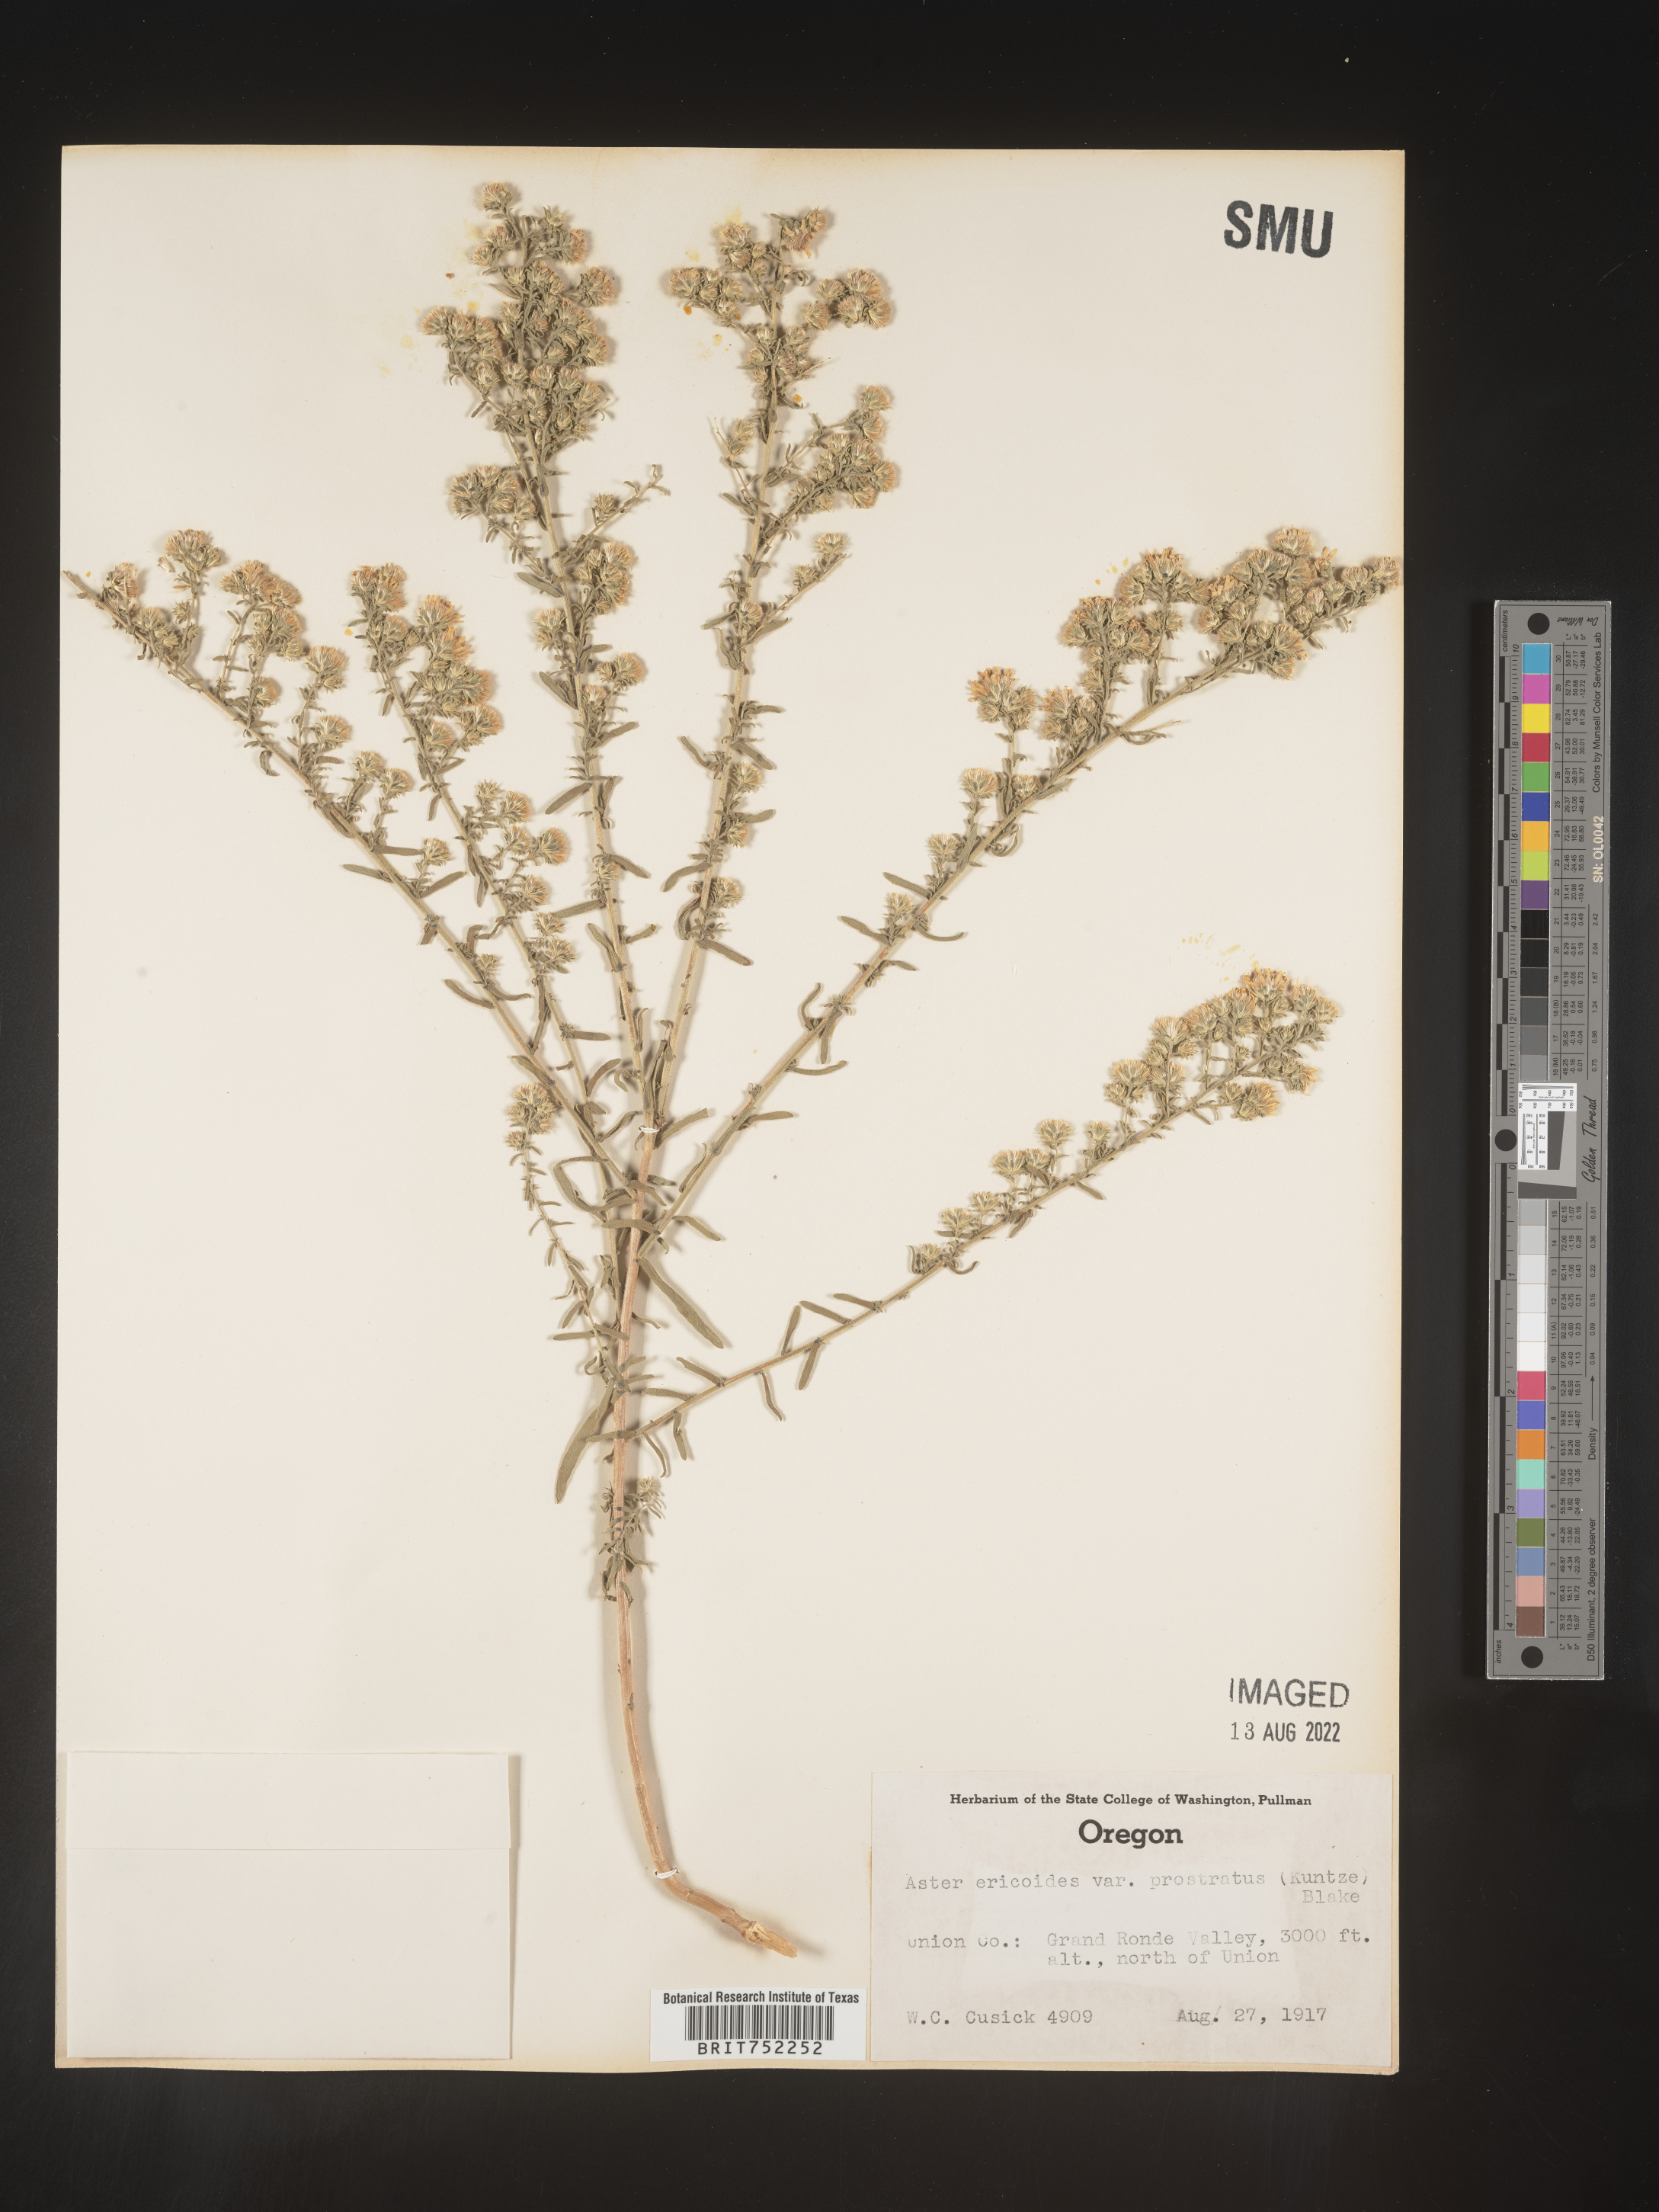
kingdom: Plantae
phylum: Tracheophyta
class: Magnoliopsida
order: Asterales
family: Asteraceae
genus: Symphyotrichum
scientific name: Symphyotrichum ericoides
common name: Heath aster
